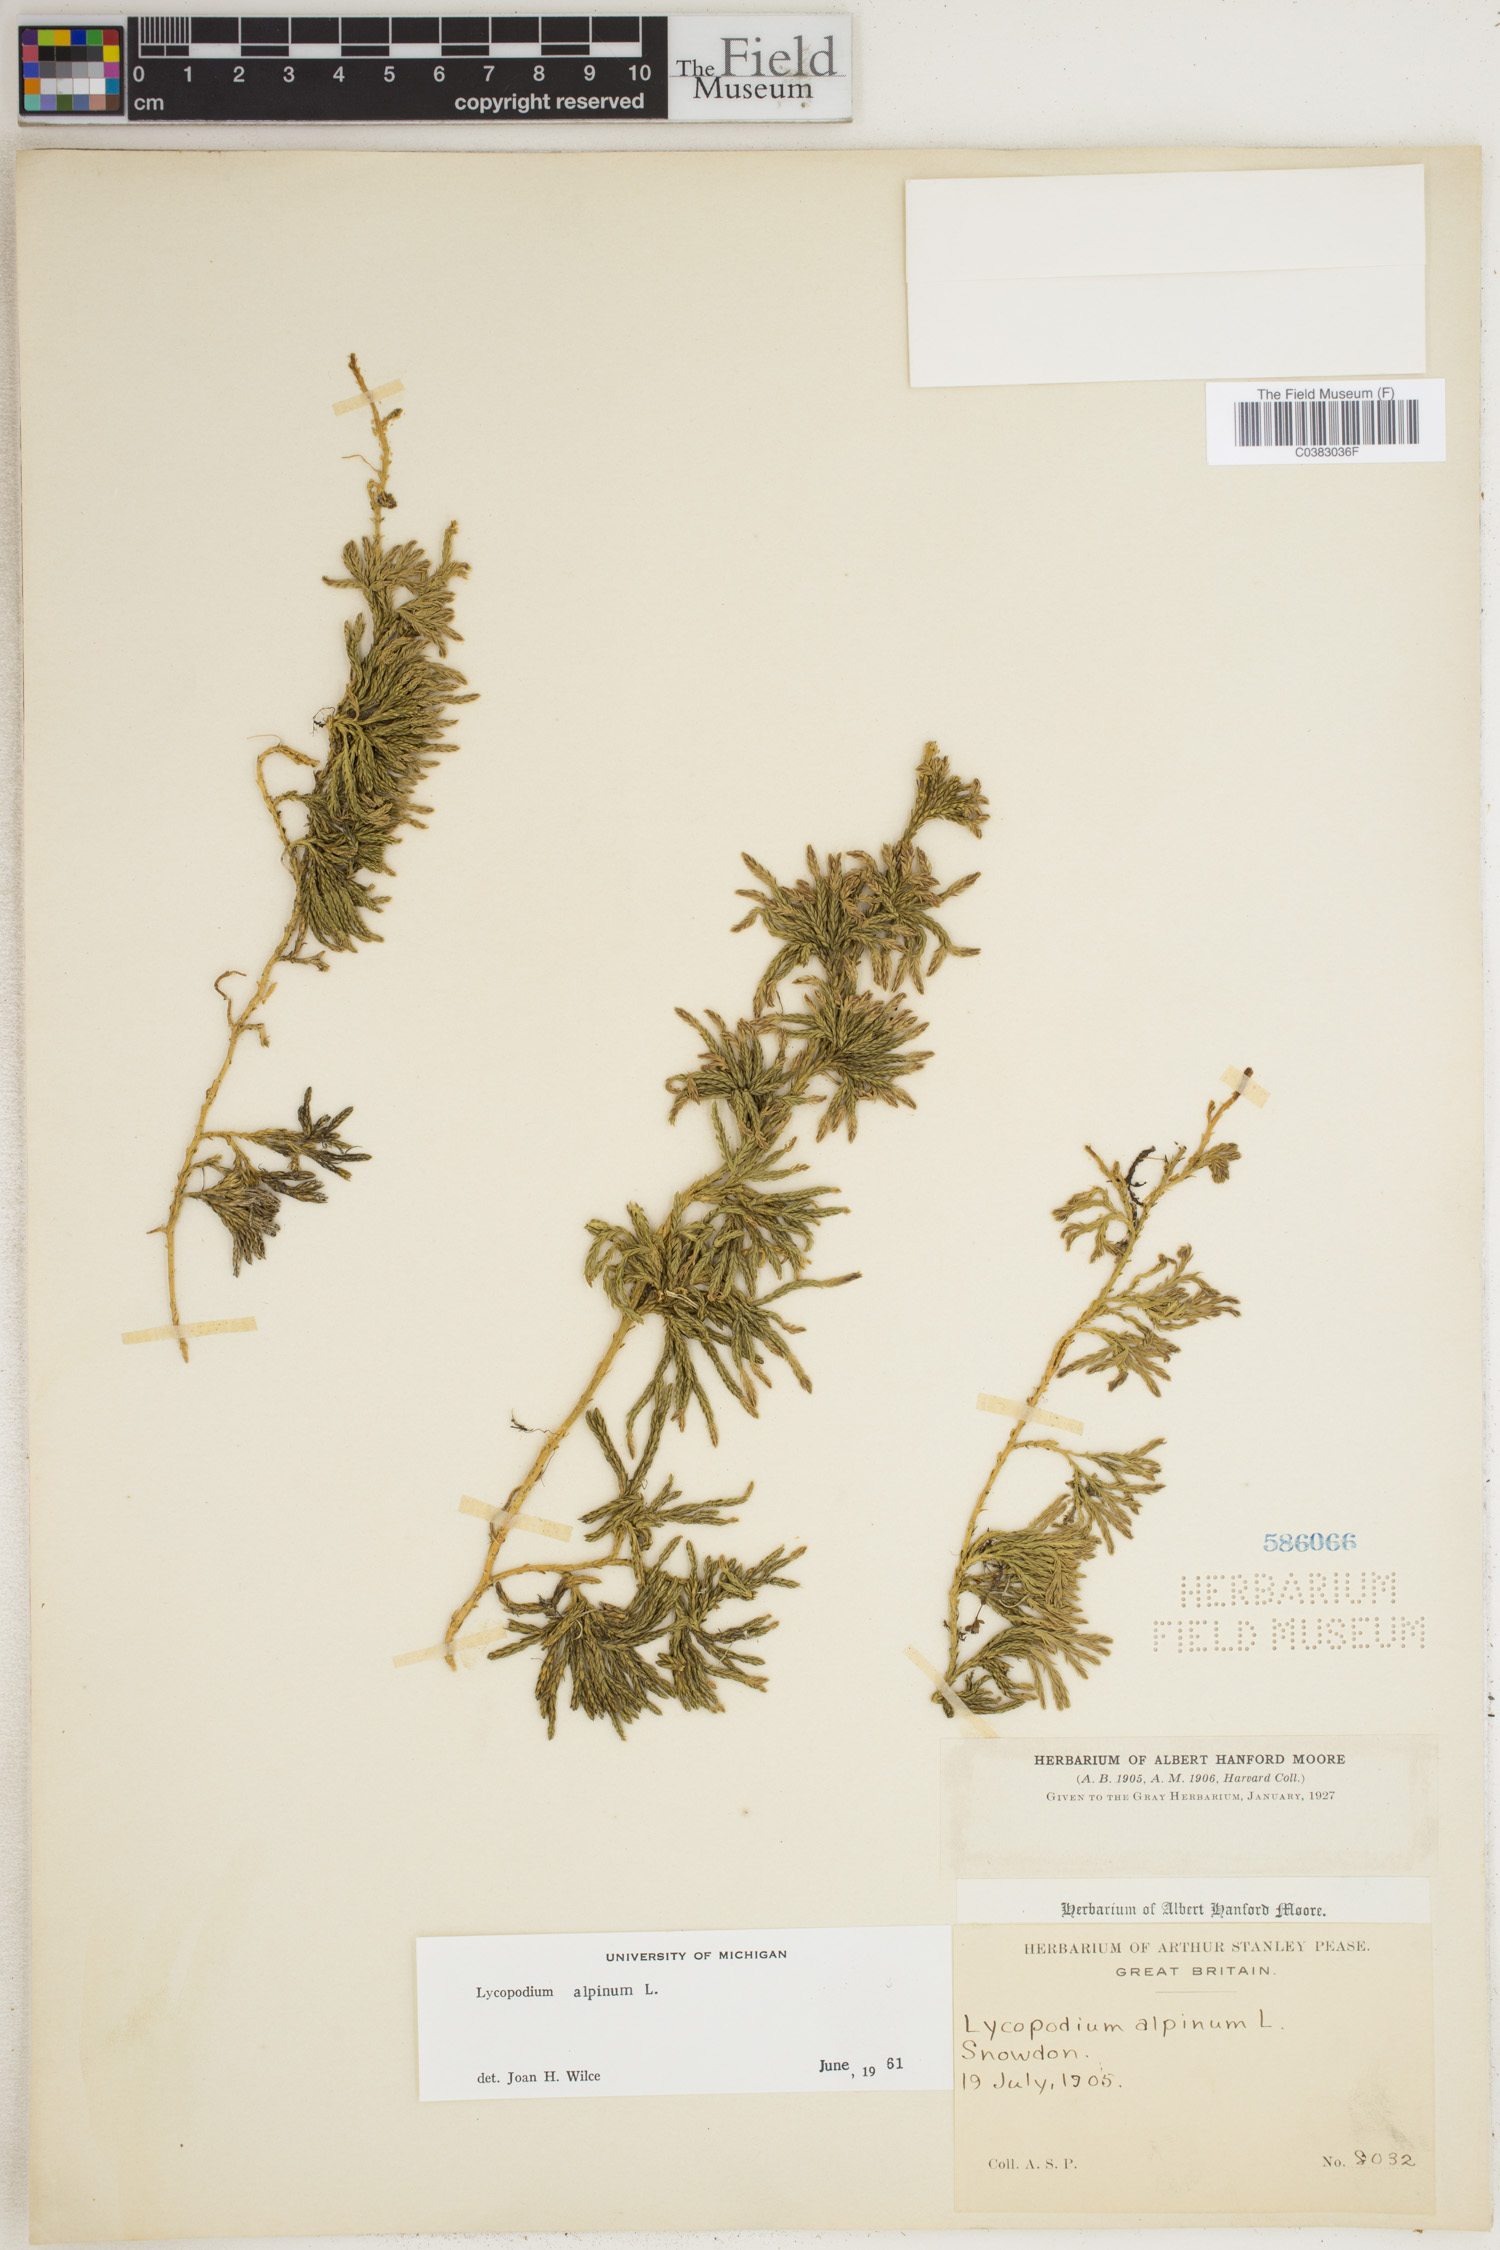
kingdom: Plantae
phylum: Tracheophyta
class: Lycopodiopsida
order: Lycopodiales
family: Lycopodiaceae
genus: Diphasiastrum
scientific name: Diphasiastrum alpinum
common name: Alpine clubmoss
